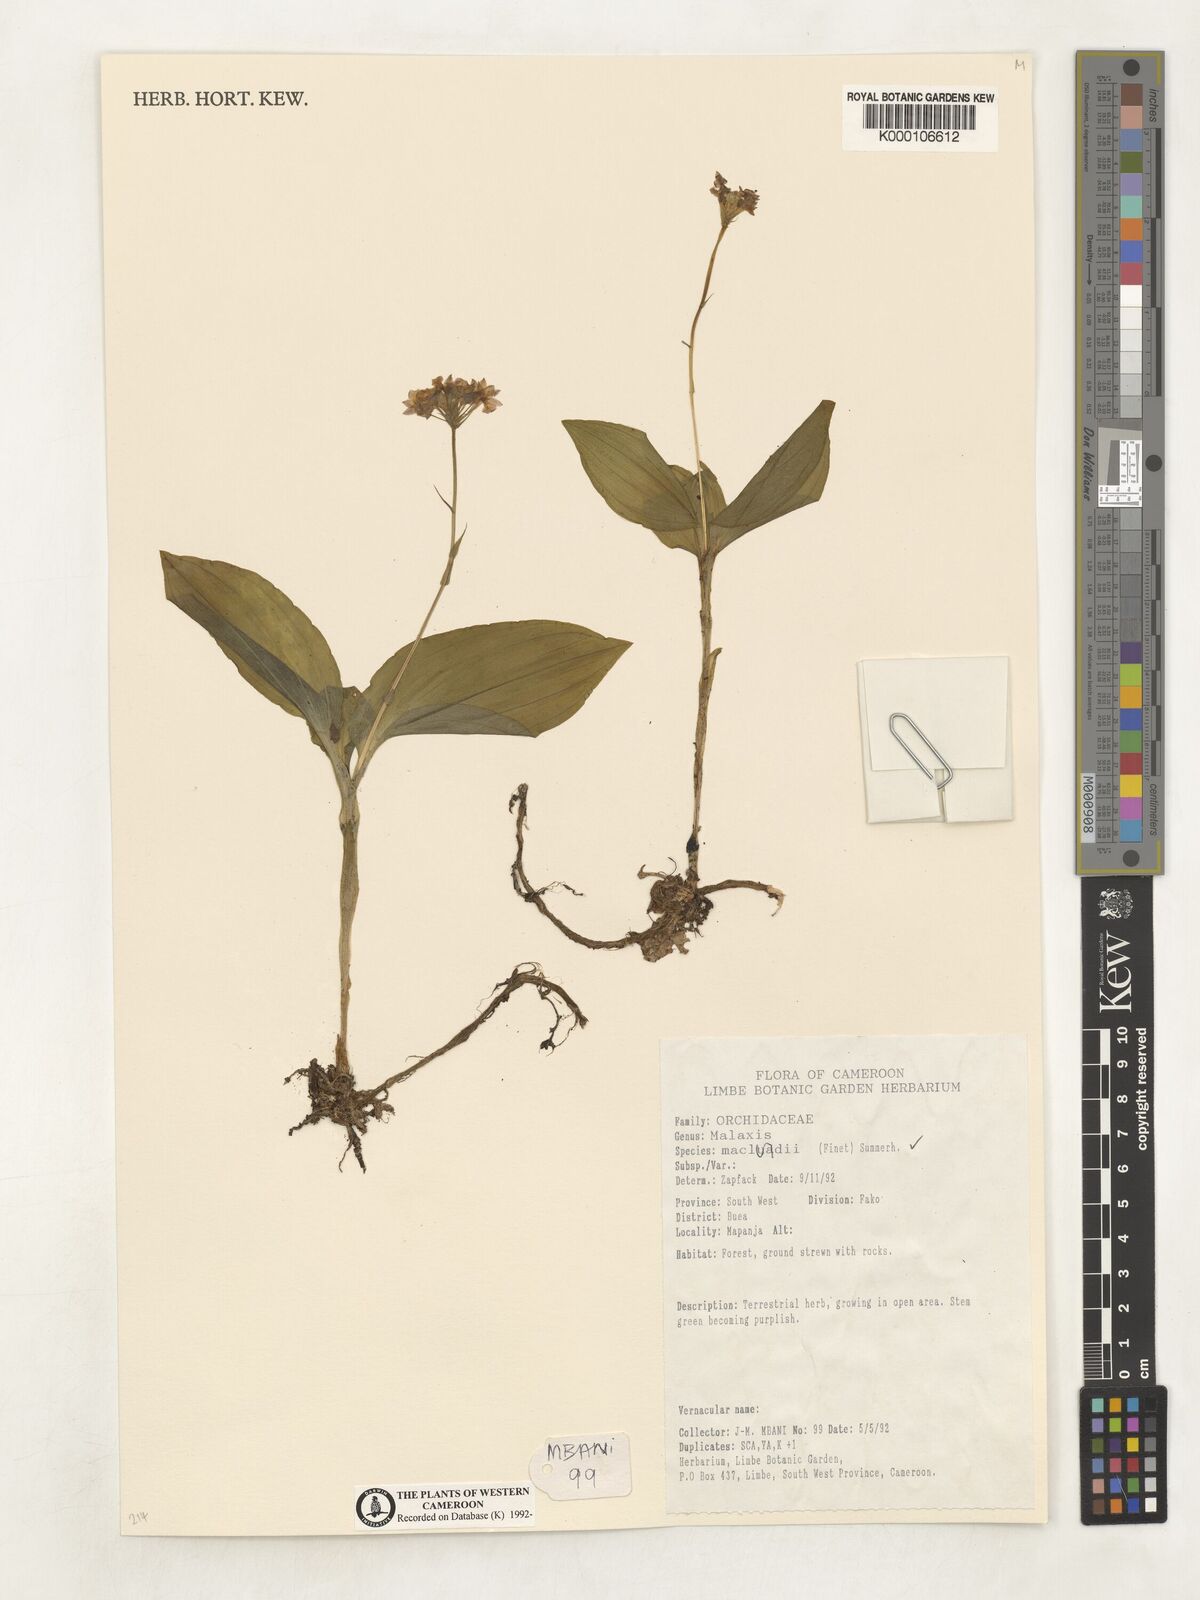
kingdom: Plantae
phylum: Tracheophyta
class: Liliopsida
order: Asparagales
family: Orchidaceae
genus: Malaxis
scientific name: Malaxis maclaudii
